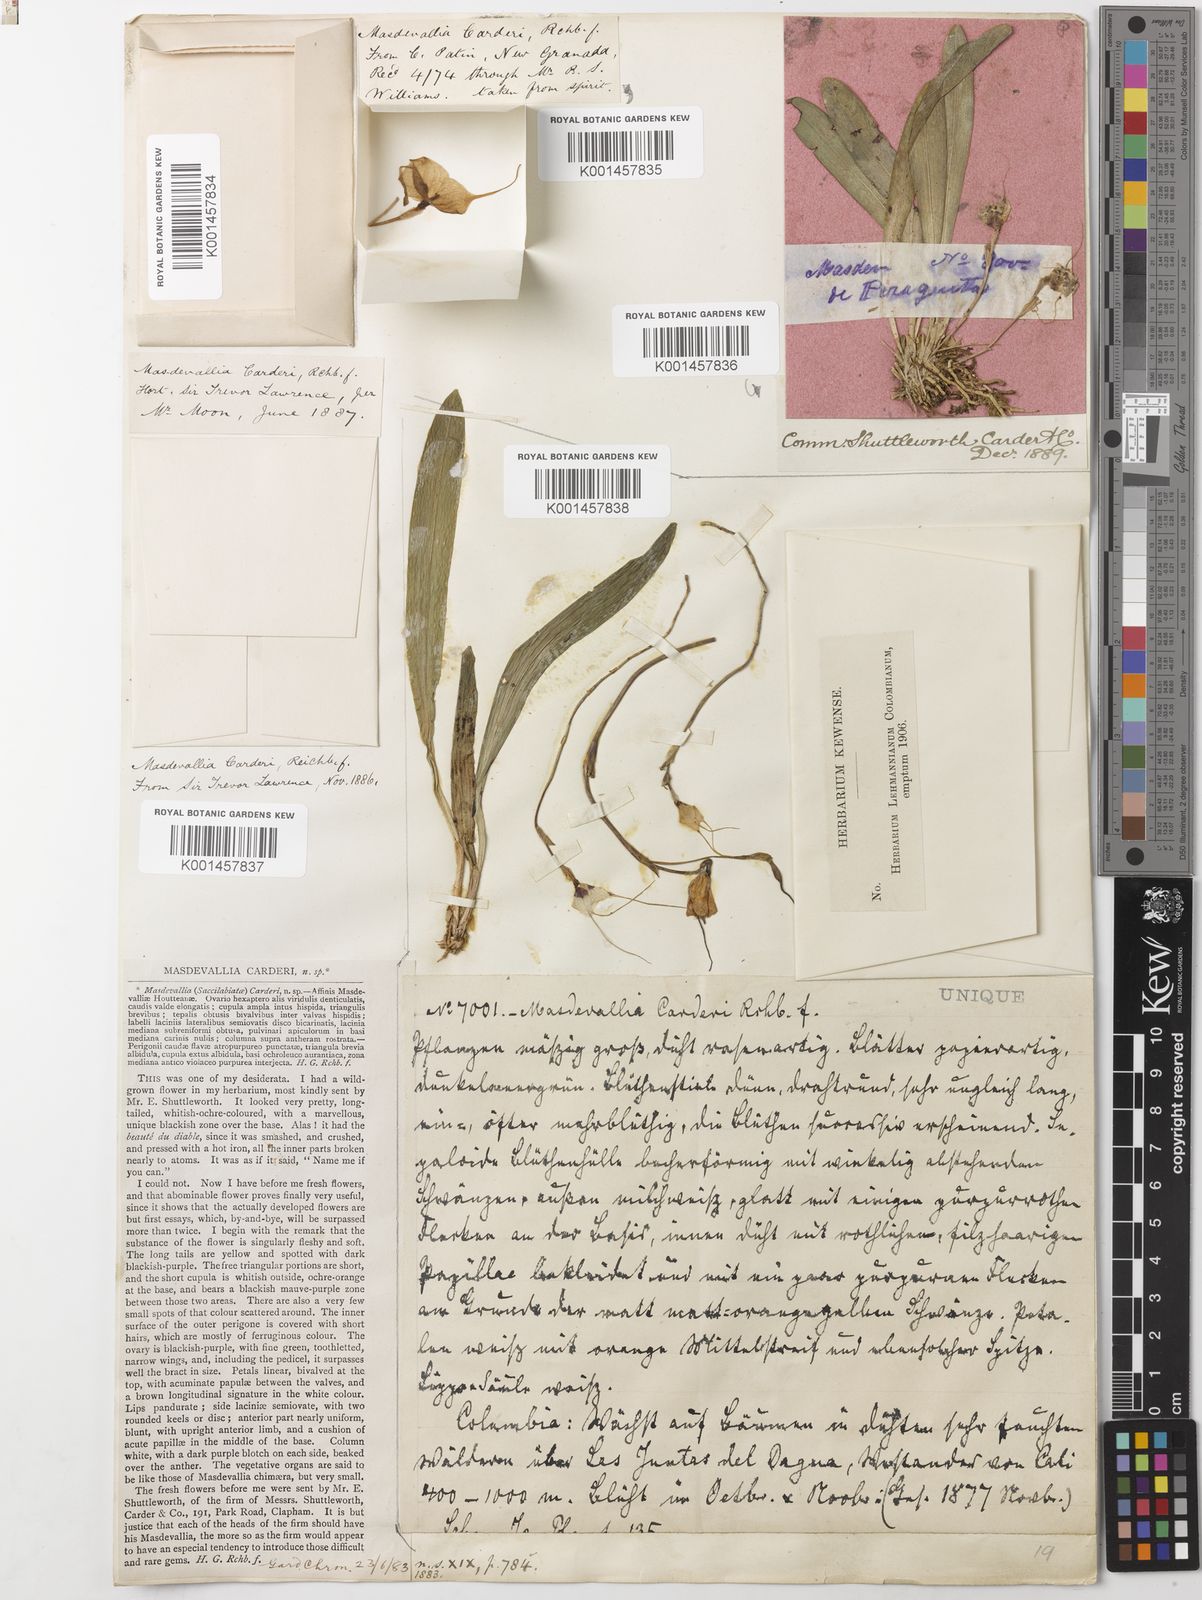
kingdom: Plantae
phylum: Tracheophyta
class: Liliopsida
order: Asparagales
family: Orchidaceae
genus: Dracula
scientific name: Dracula inaequalis
